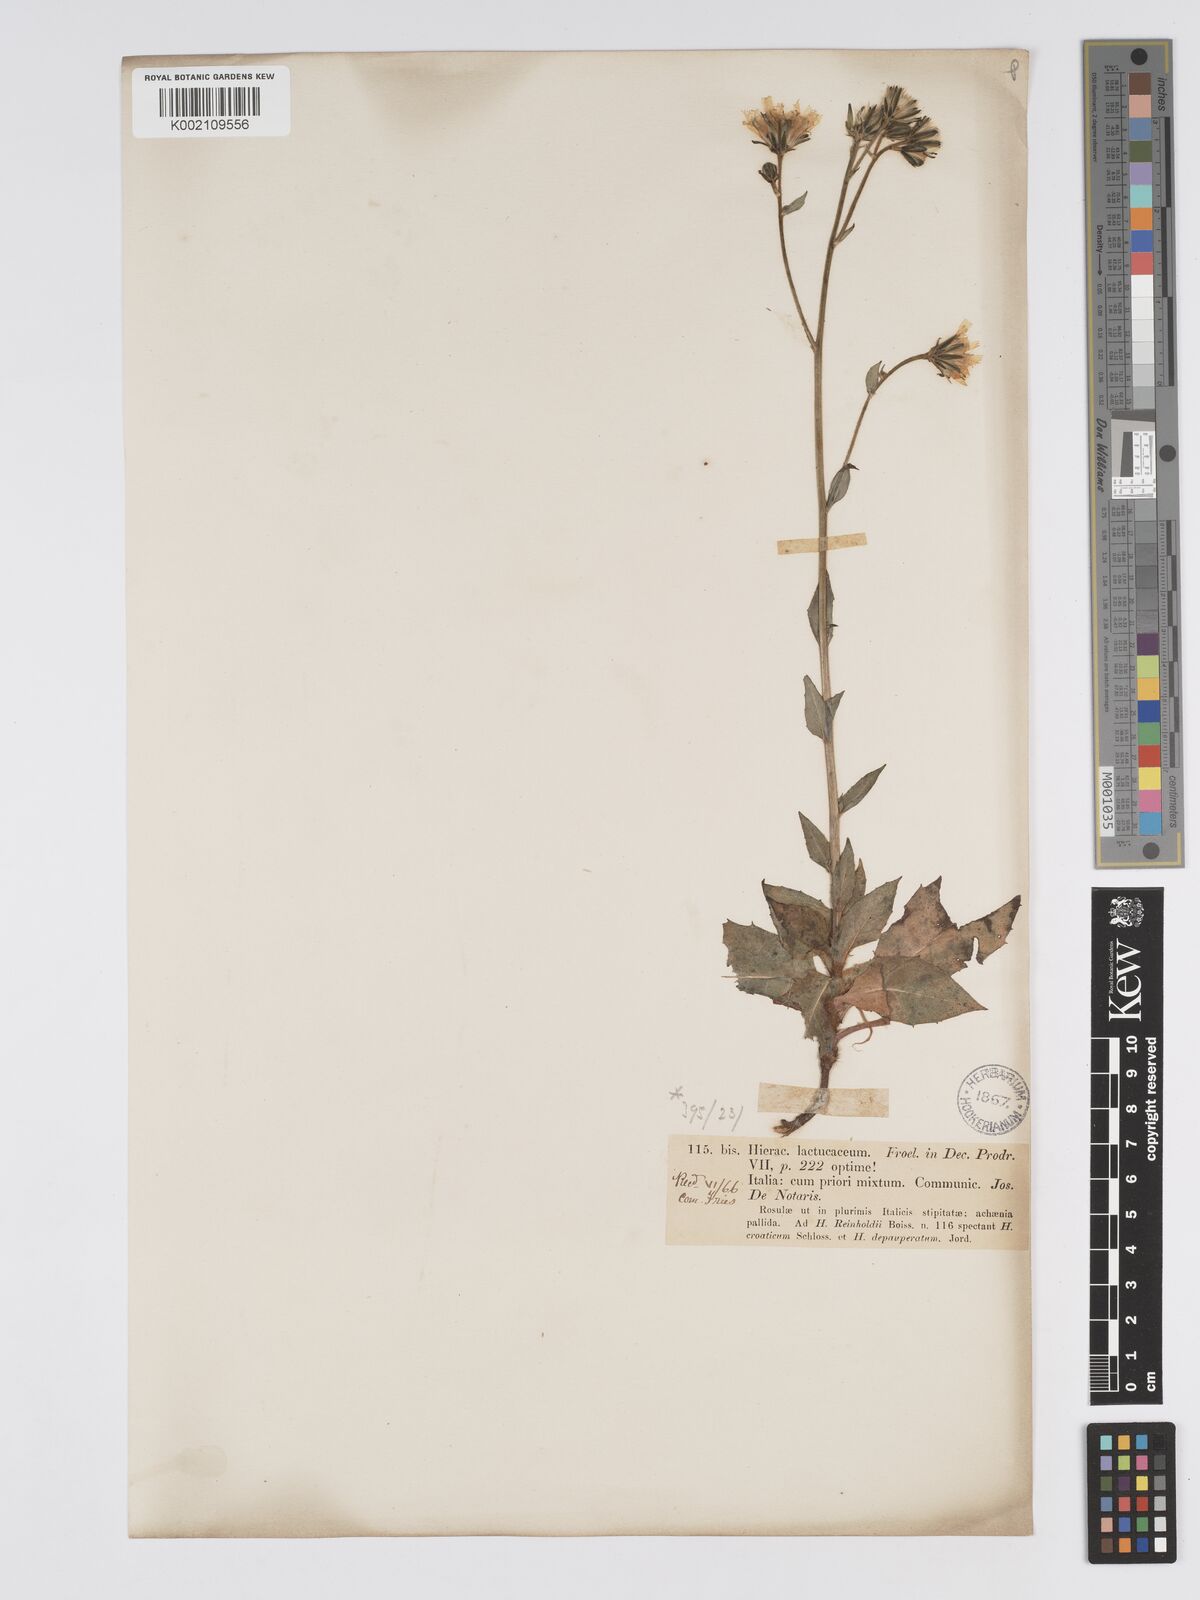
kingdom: Plantae
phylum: Tracheophyta
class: Magnoliopsida
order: Asterales
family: Asteraceae
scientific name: Asteraceae
